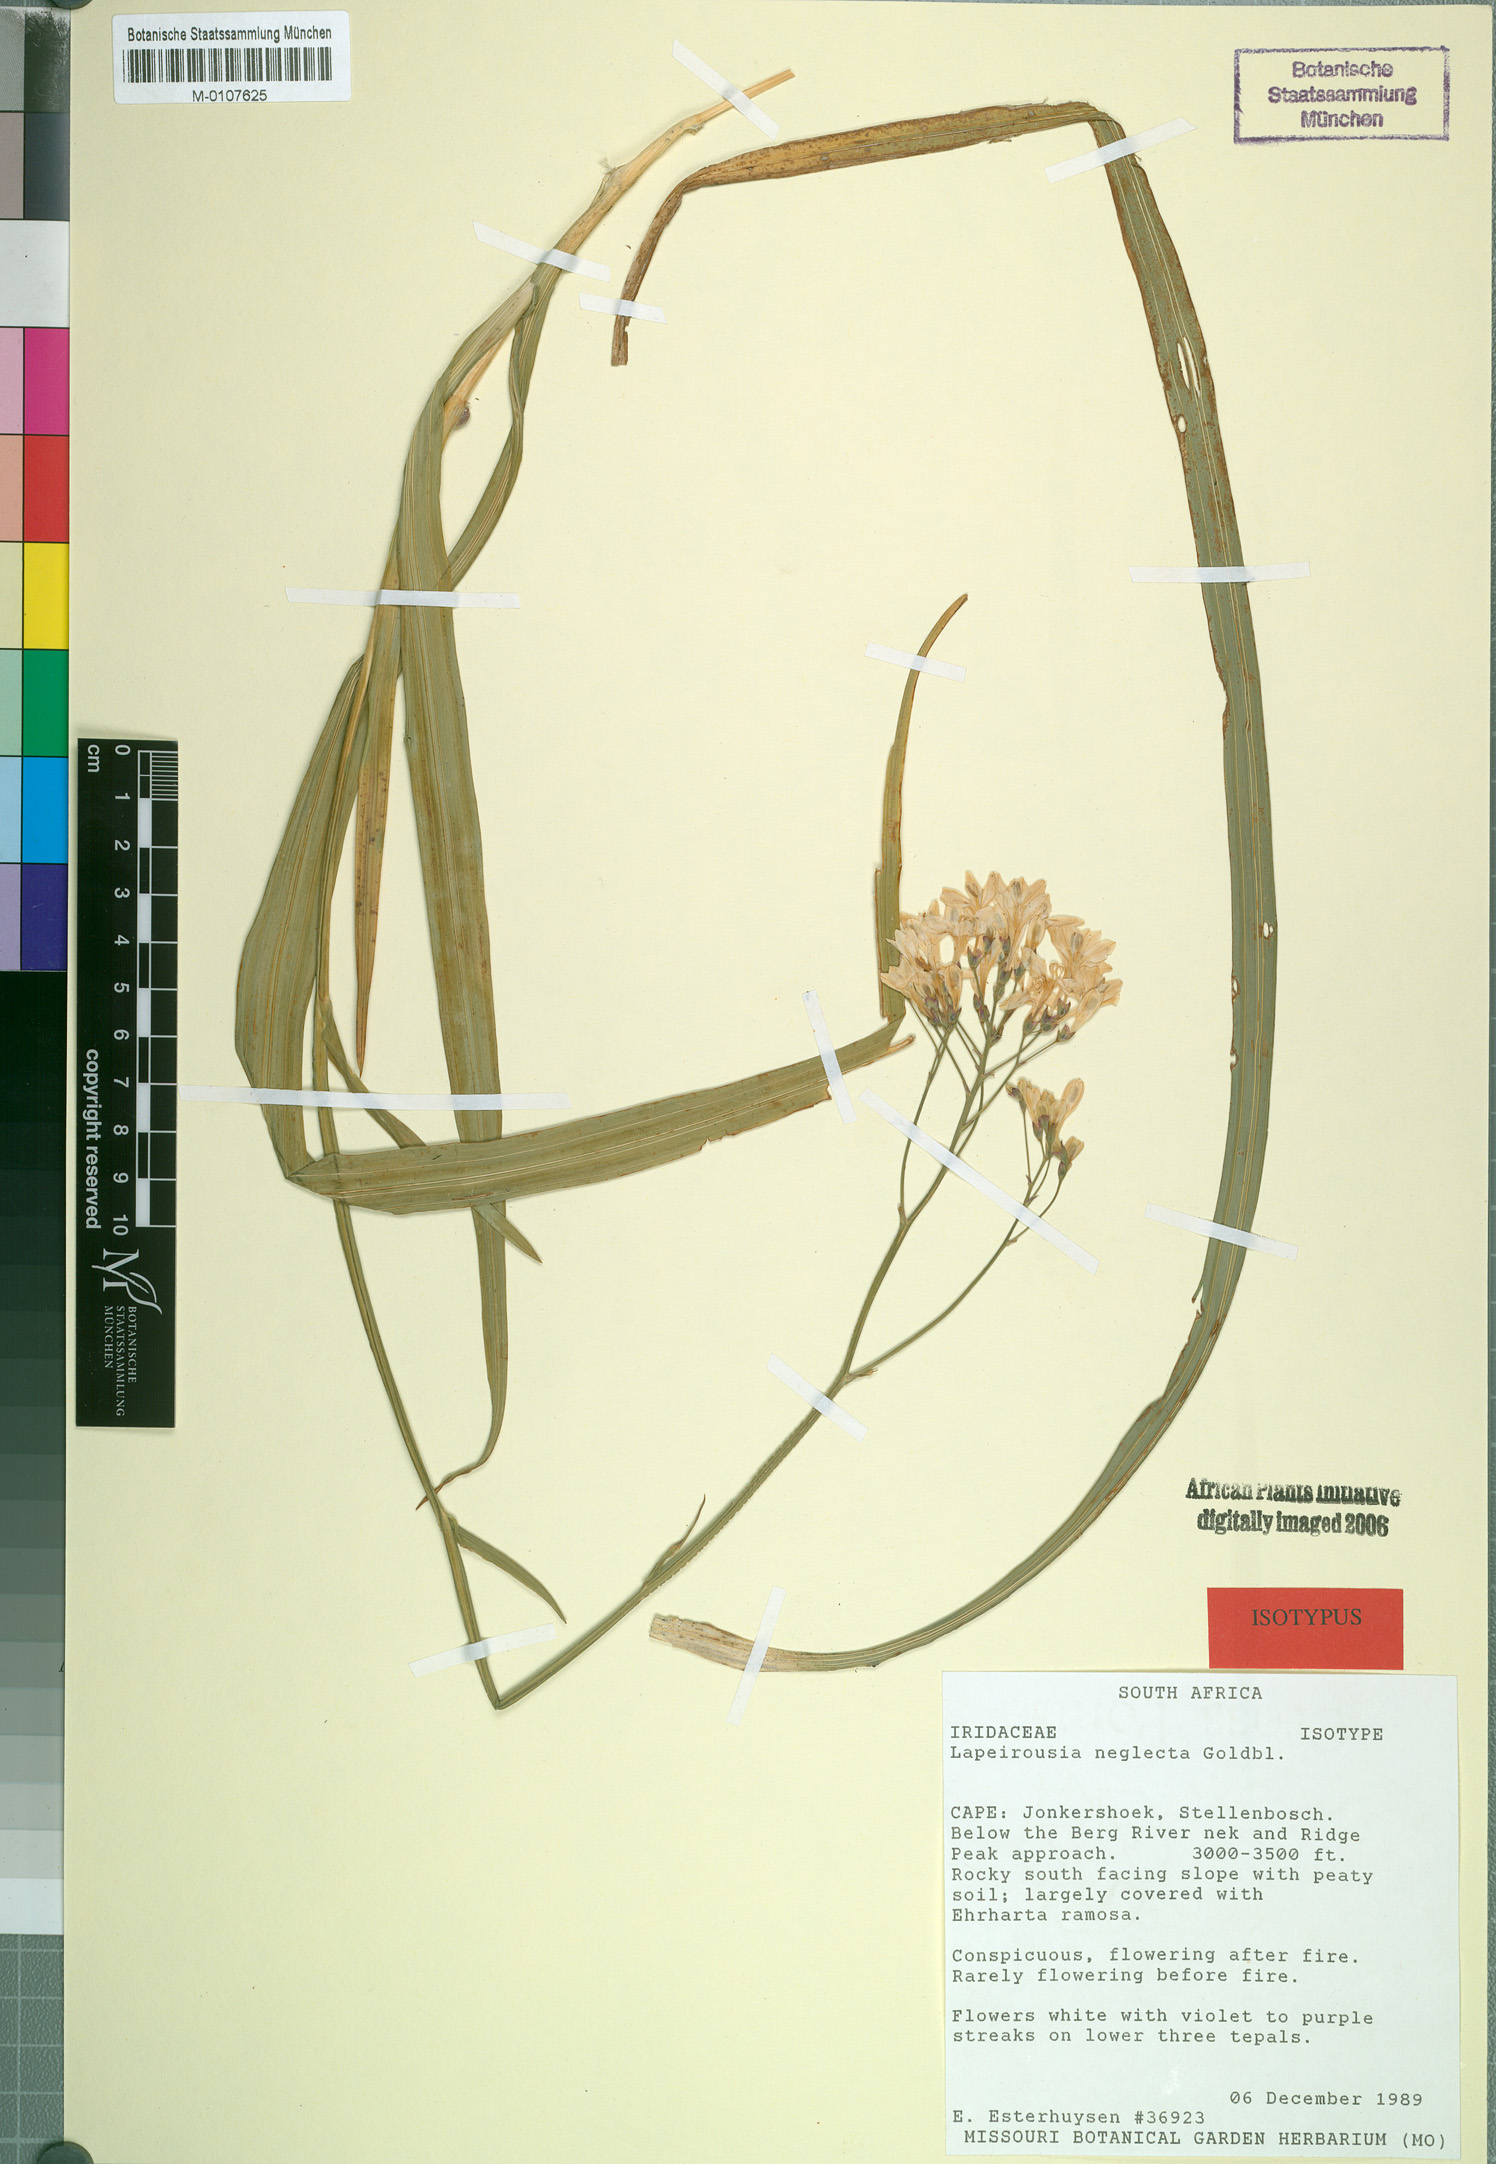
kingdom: Plantae
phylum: Tracheophyta
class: Liliopsida
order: Asparagales
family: Iridaceae
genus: Schizorhiza
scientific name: Schizorhiza neglecta
